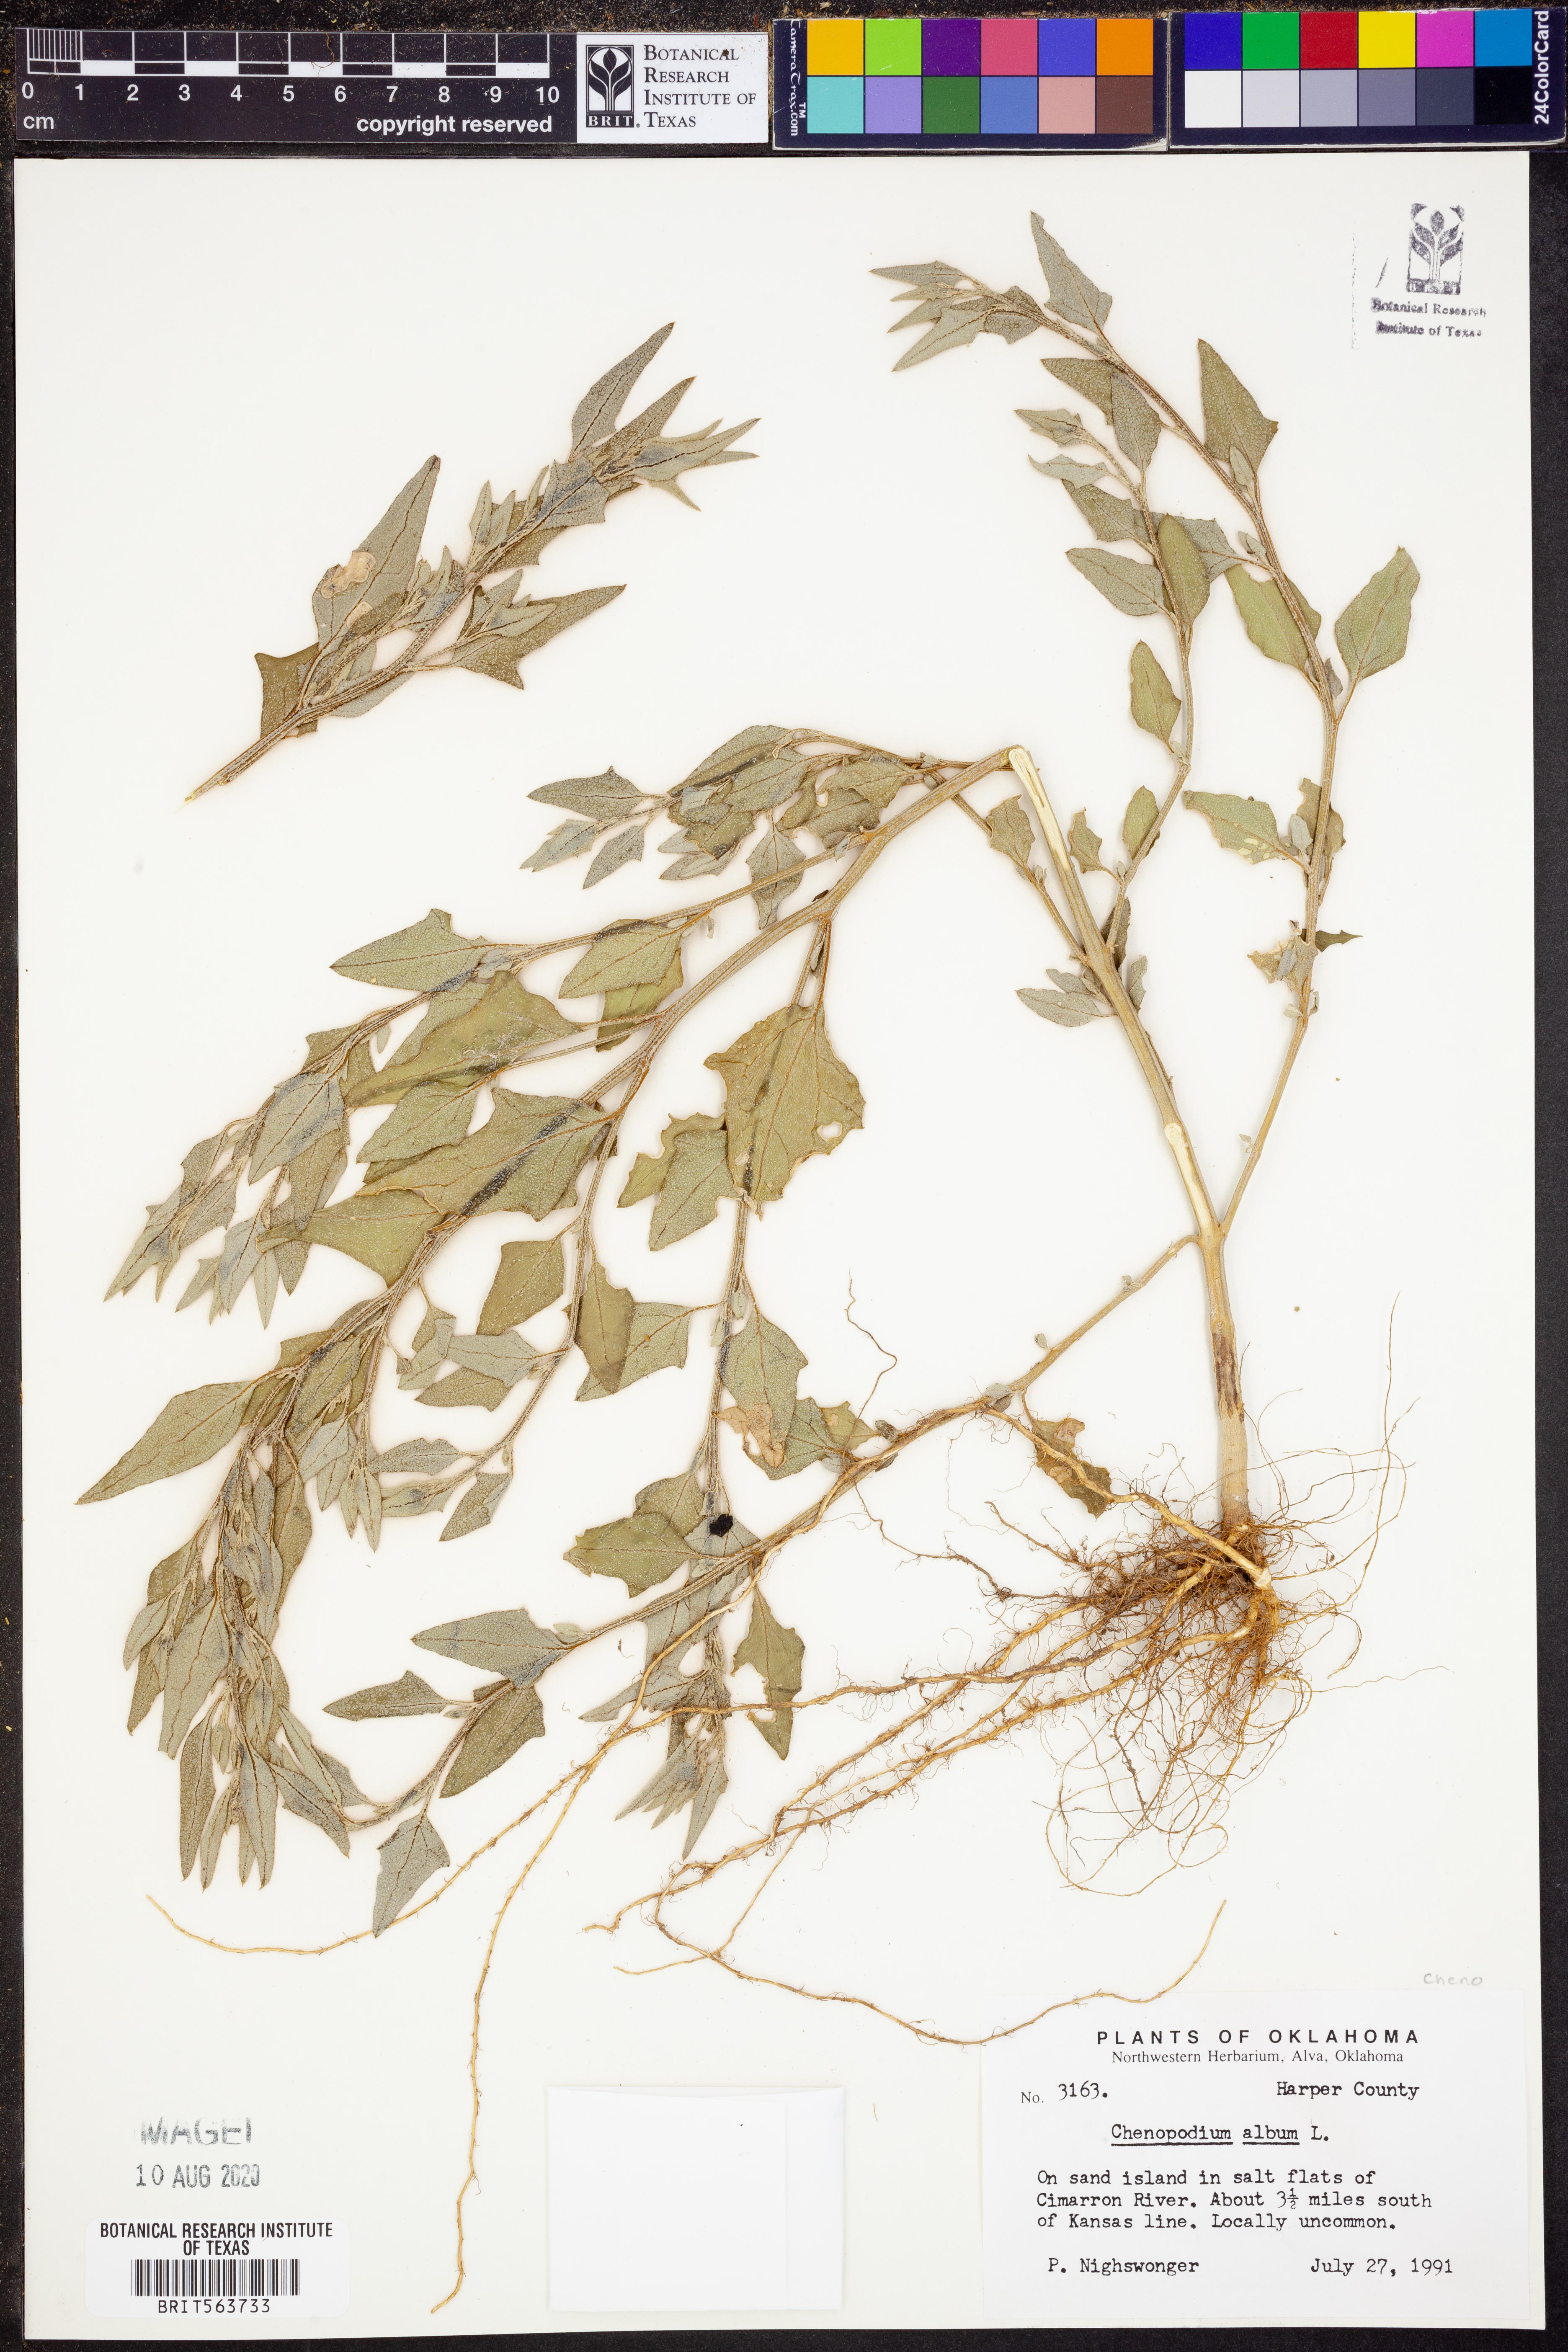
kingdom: Plantae
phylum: Tracheophyta
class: Magnoliopsida
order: Caryophyllales
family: Amaranthaceae
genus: Chenopodium
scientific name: Chenopodium album
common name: Fat-hen
